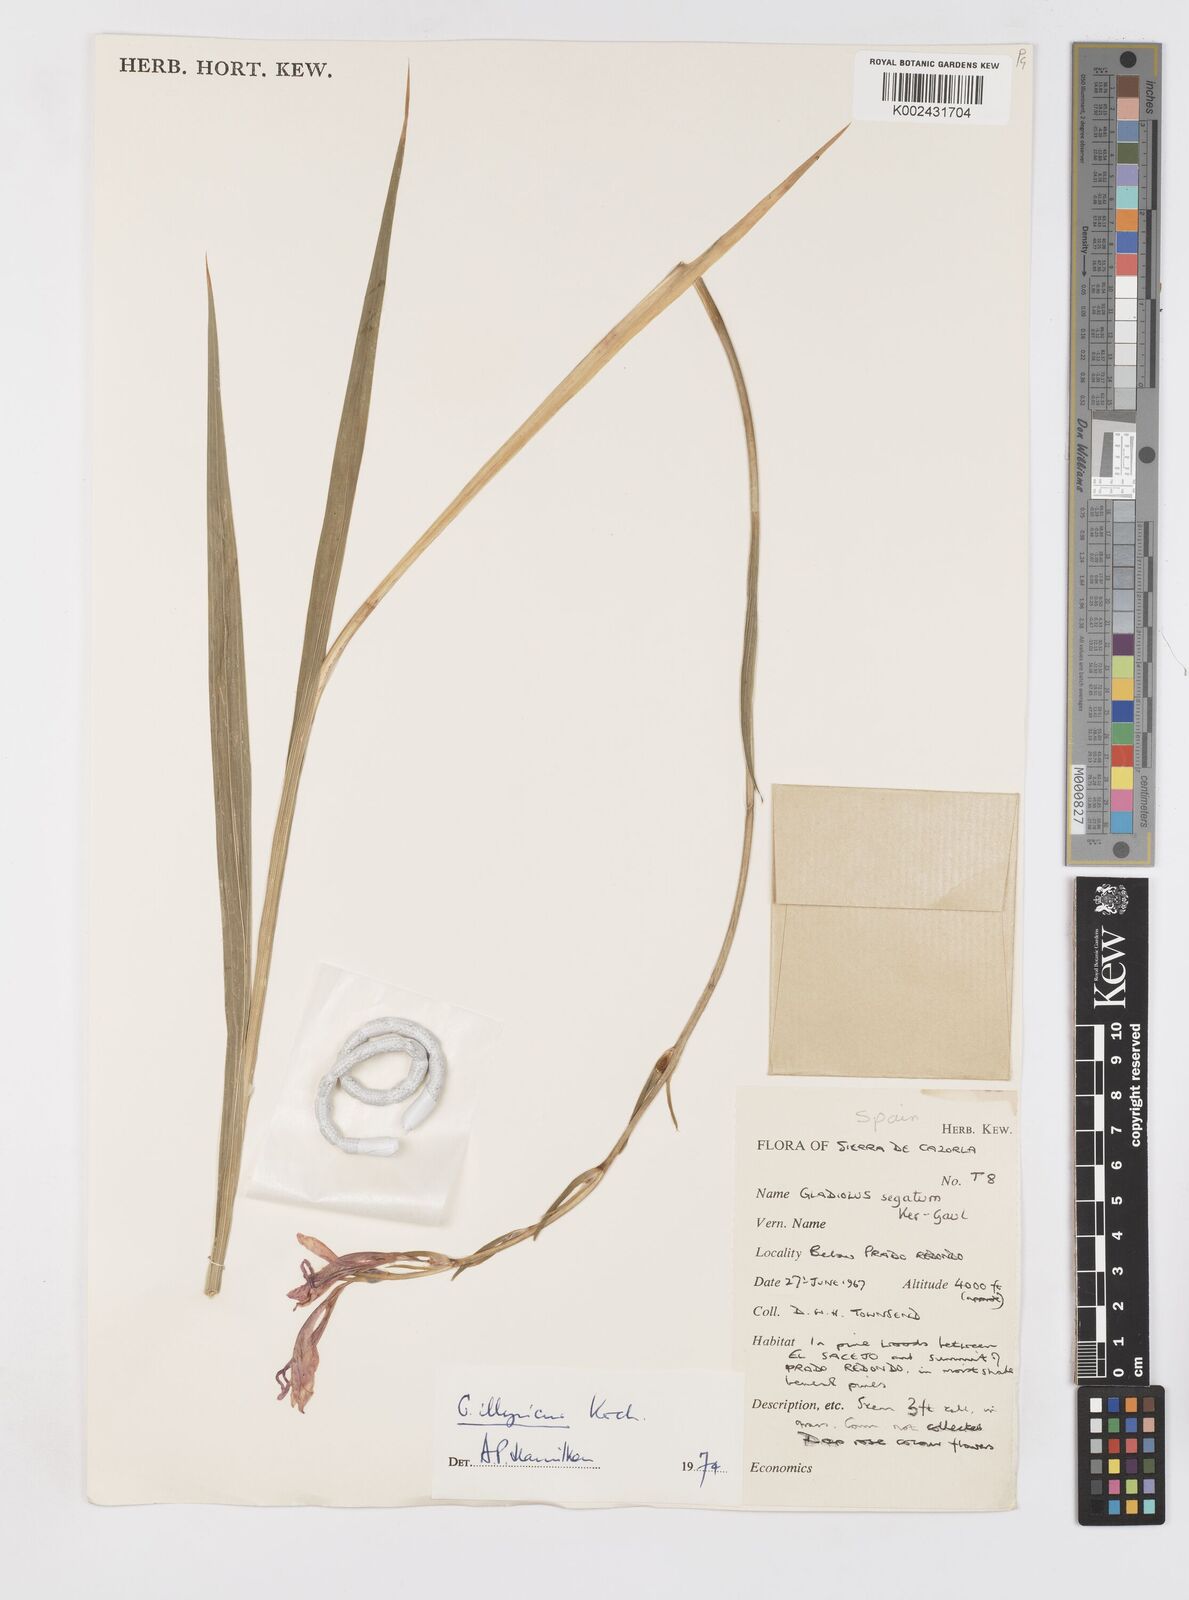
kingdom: Plantae
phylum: Tracheophyta
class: Liliopsida
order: Asparagales
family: Iridaceae
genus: Gladiolus
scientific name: Gladiolus illyricus
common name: Wild gladiolus
